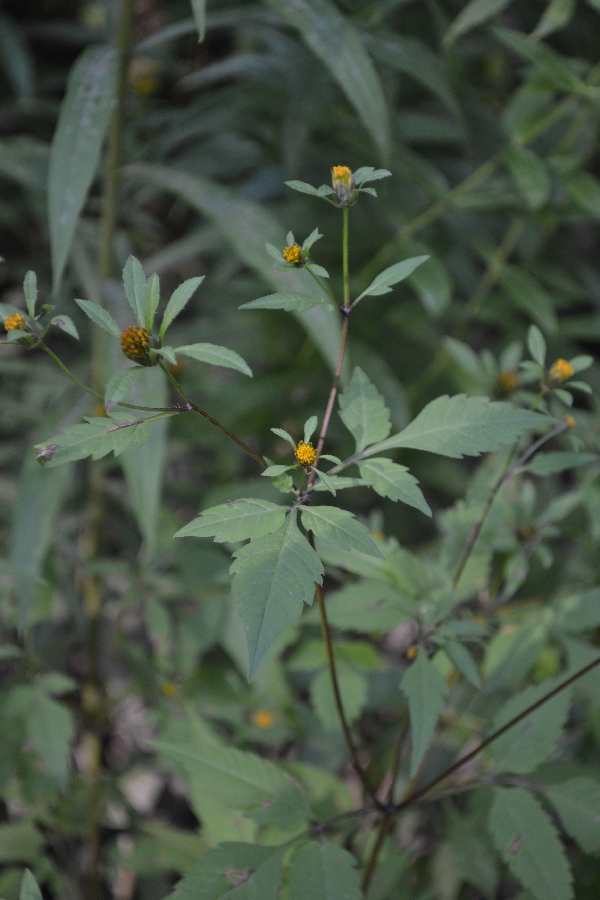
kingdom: Plantae
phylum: Tracheophyta
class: Magnoliopsida
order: Asterales
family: Asteraceae
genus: Bidens
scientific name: Bidens frondosa
